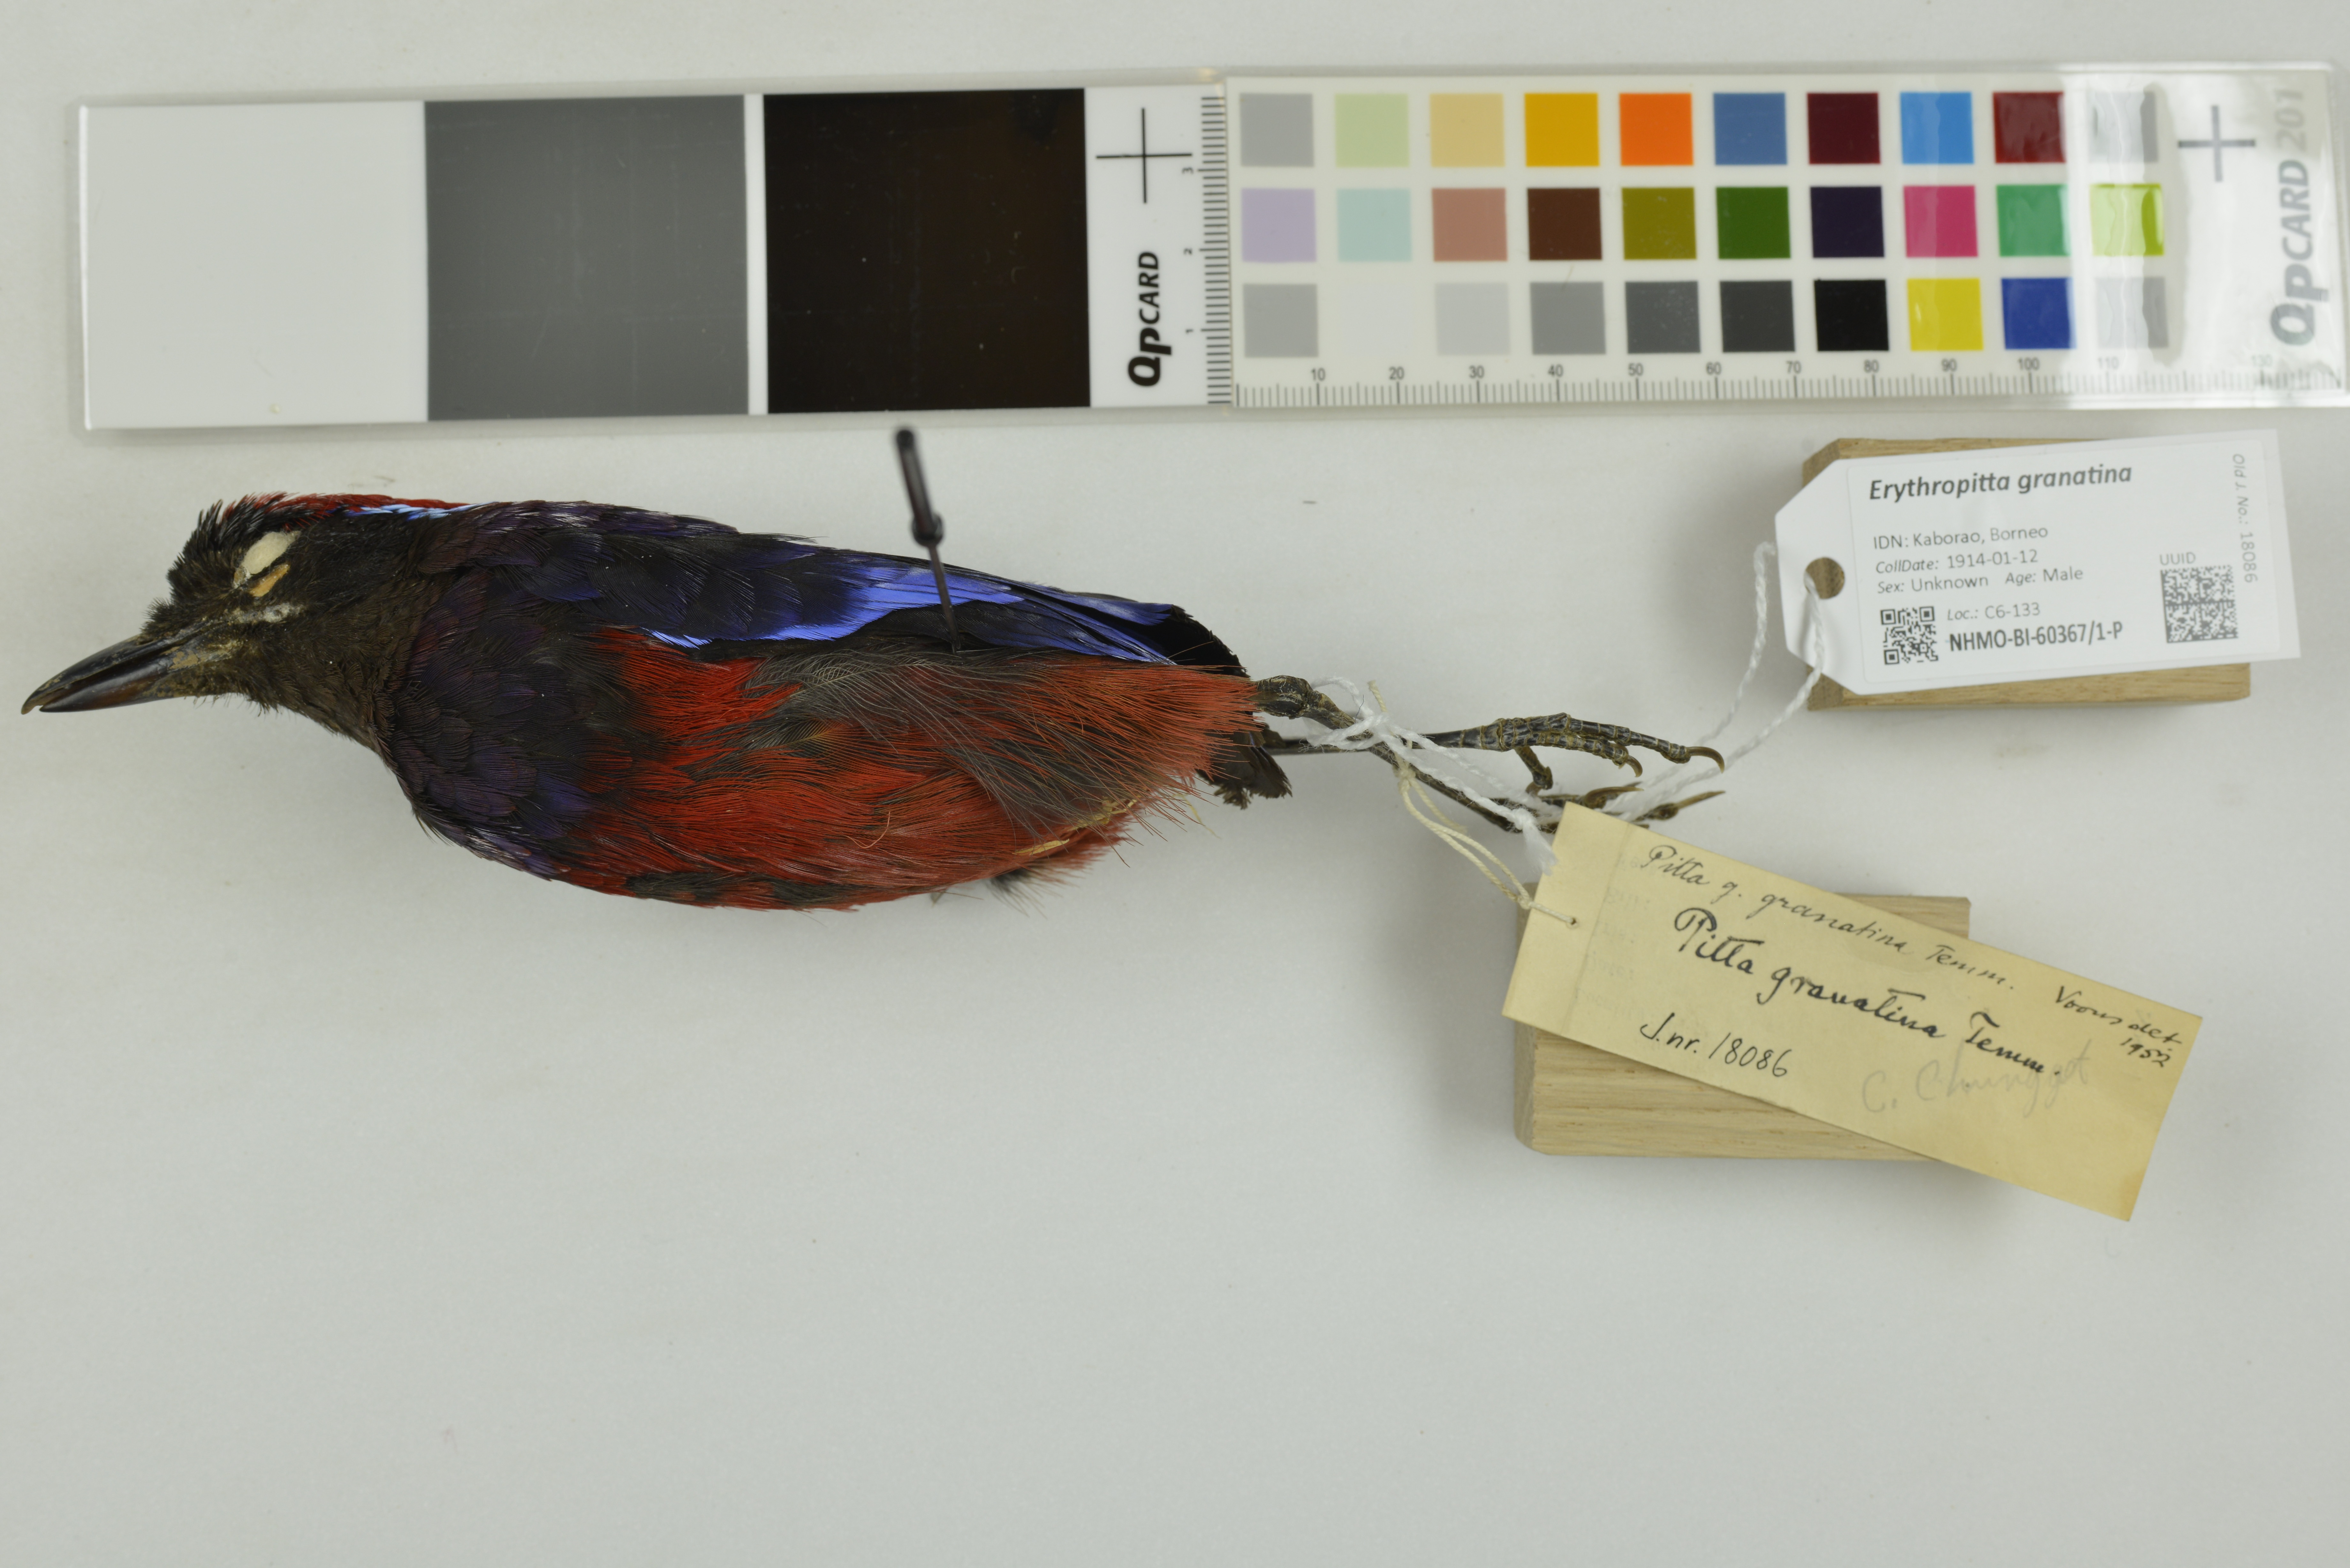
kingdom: Animalia
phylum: Chordata
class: Aves
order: Passeriformes
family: Pittidae
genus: Pitta
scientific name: Pitta granatina
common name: Garnet pitta
